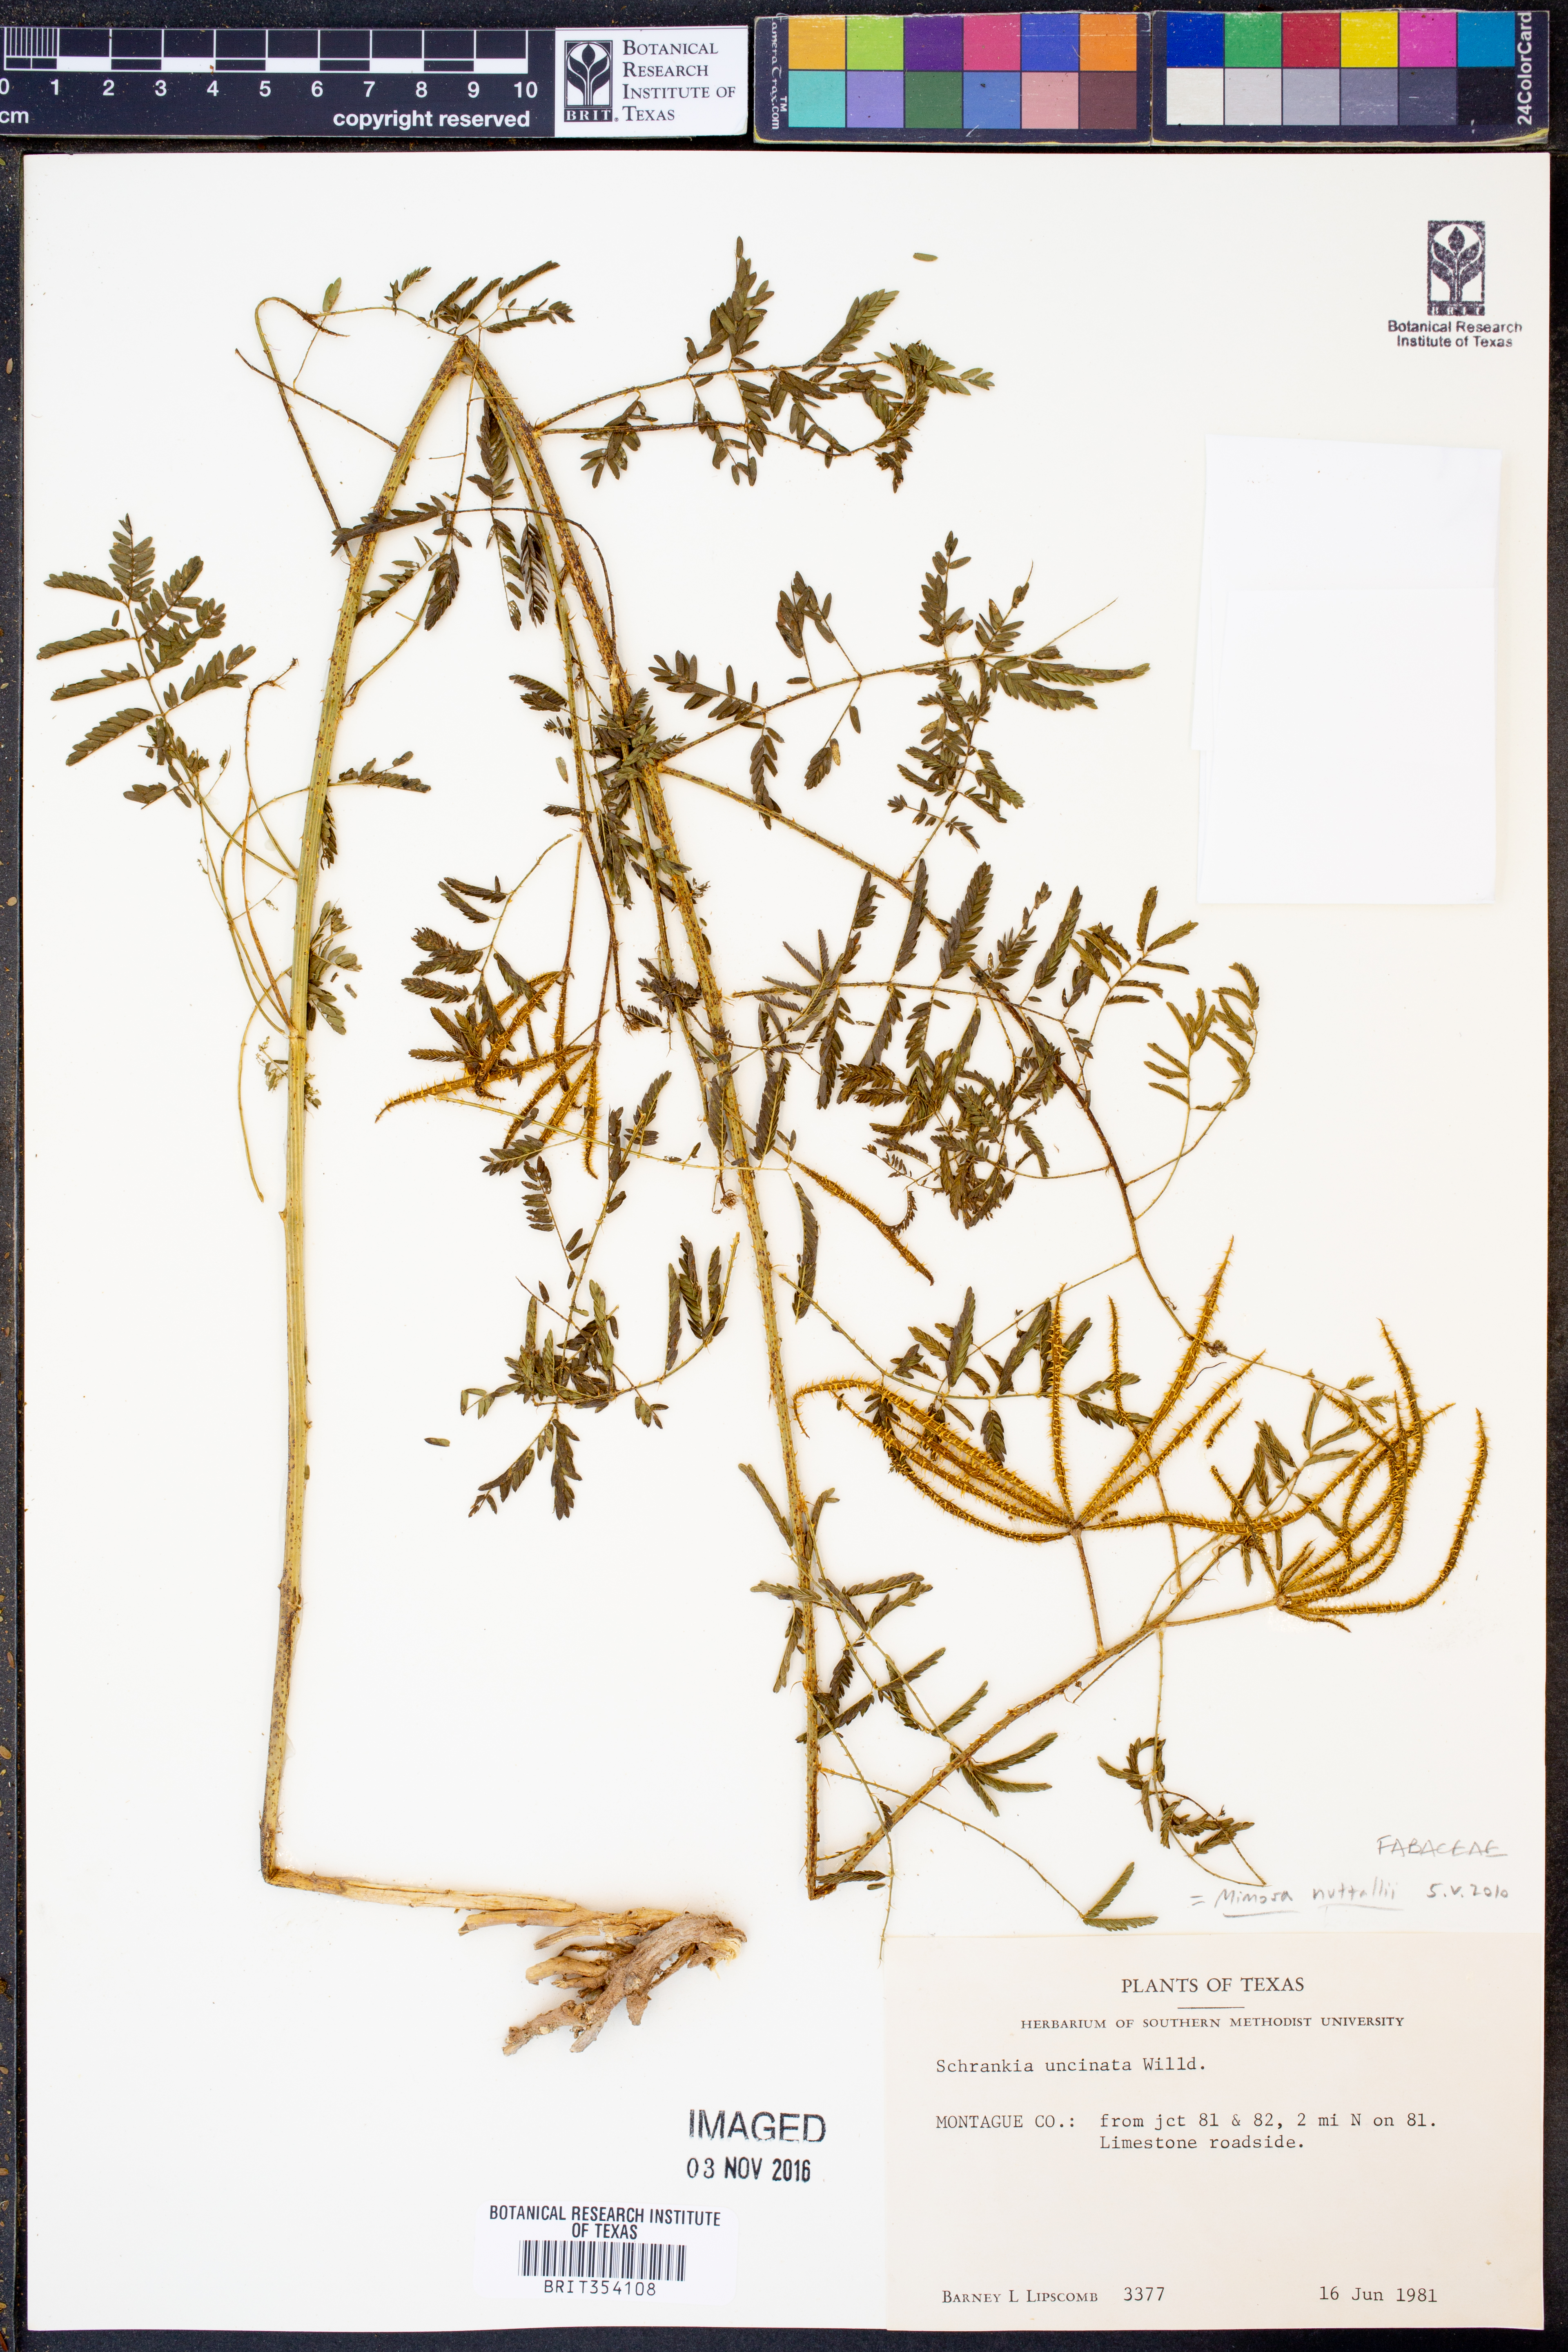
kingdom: Plantae
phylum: Tracheophyta
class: Magnoliopsida
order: Fabales
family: Fabaceae
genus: Mimosa
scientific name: Mimosa quadrivalvis
